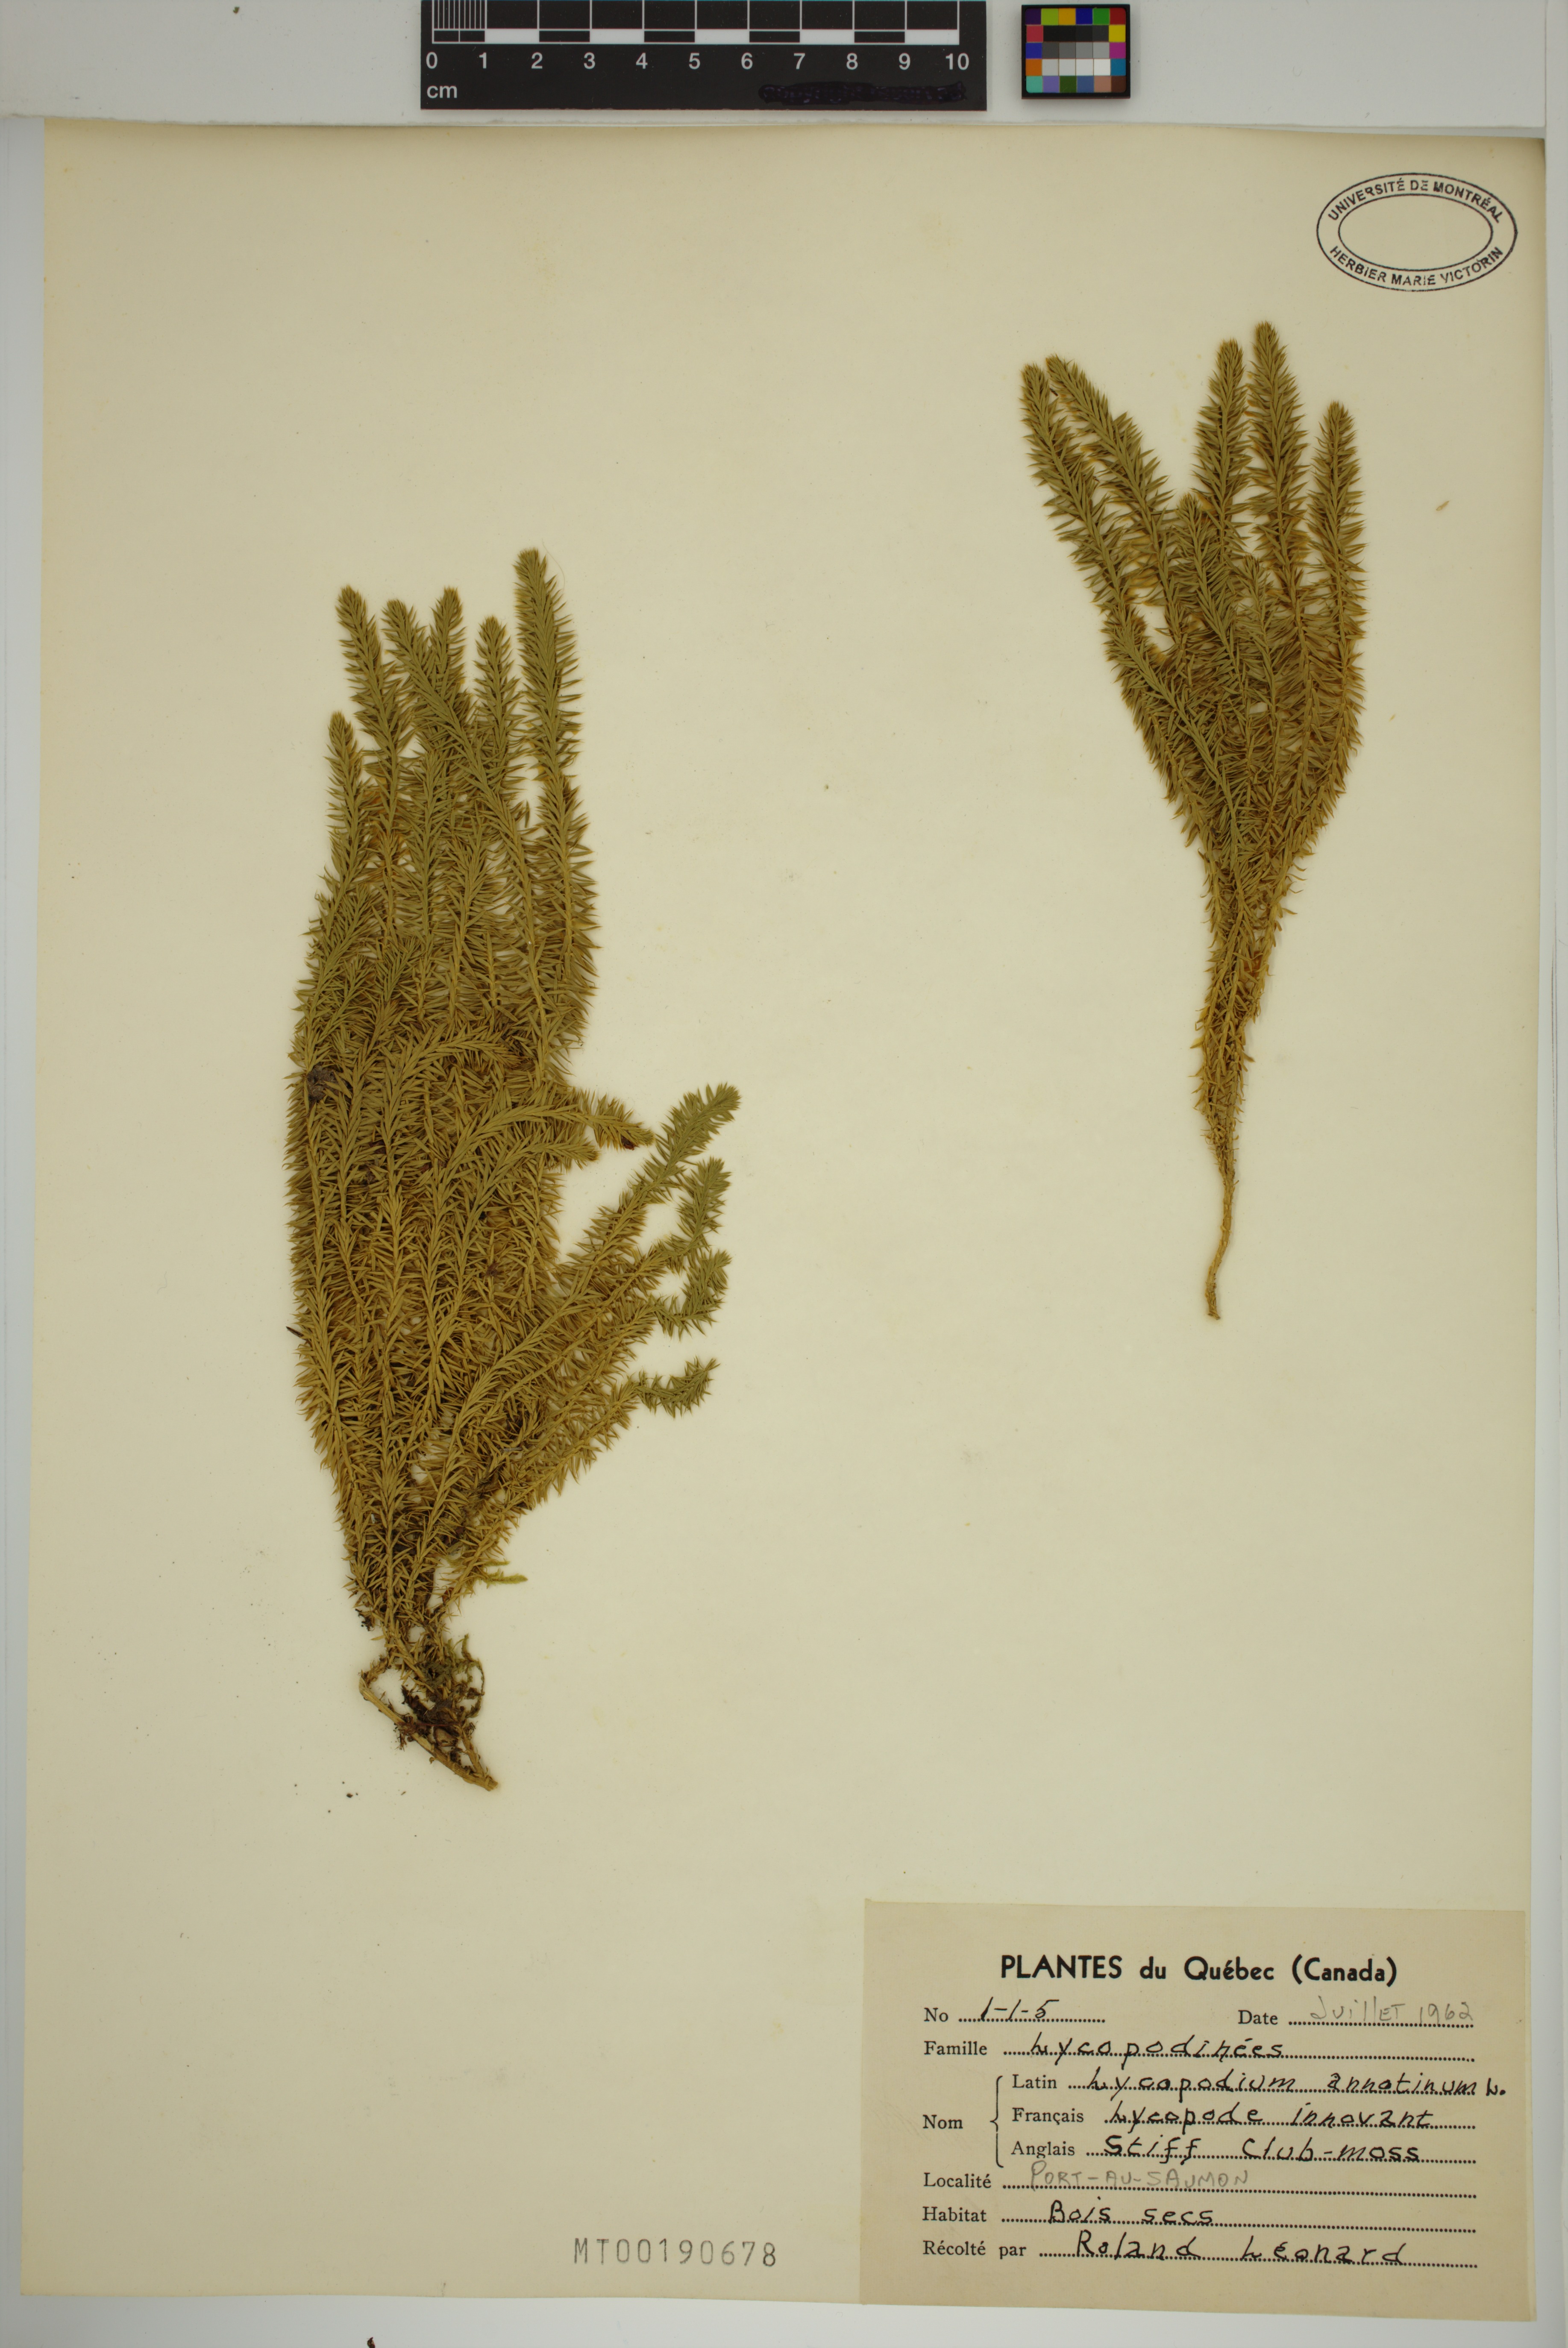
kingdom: Plantae
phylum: Tracheophyta
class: Lycopodiopsida
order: Lycopodiales
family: Lycopodiaceae
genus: Spinulum
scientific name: Spinulum annotinum
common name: Interrupted club-moss
